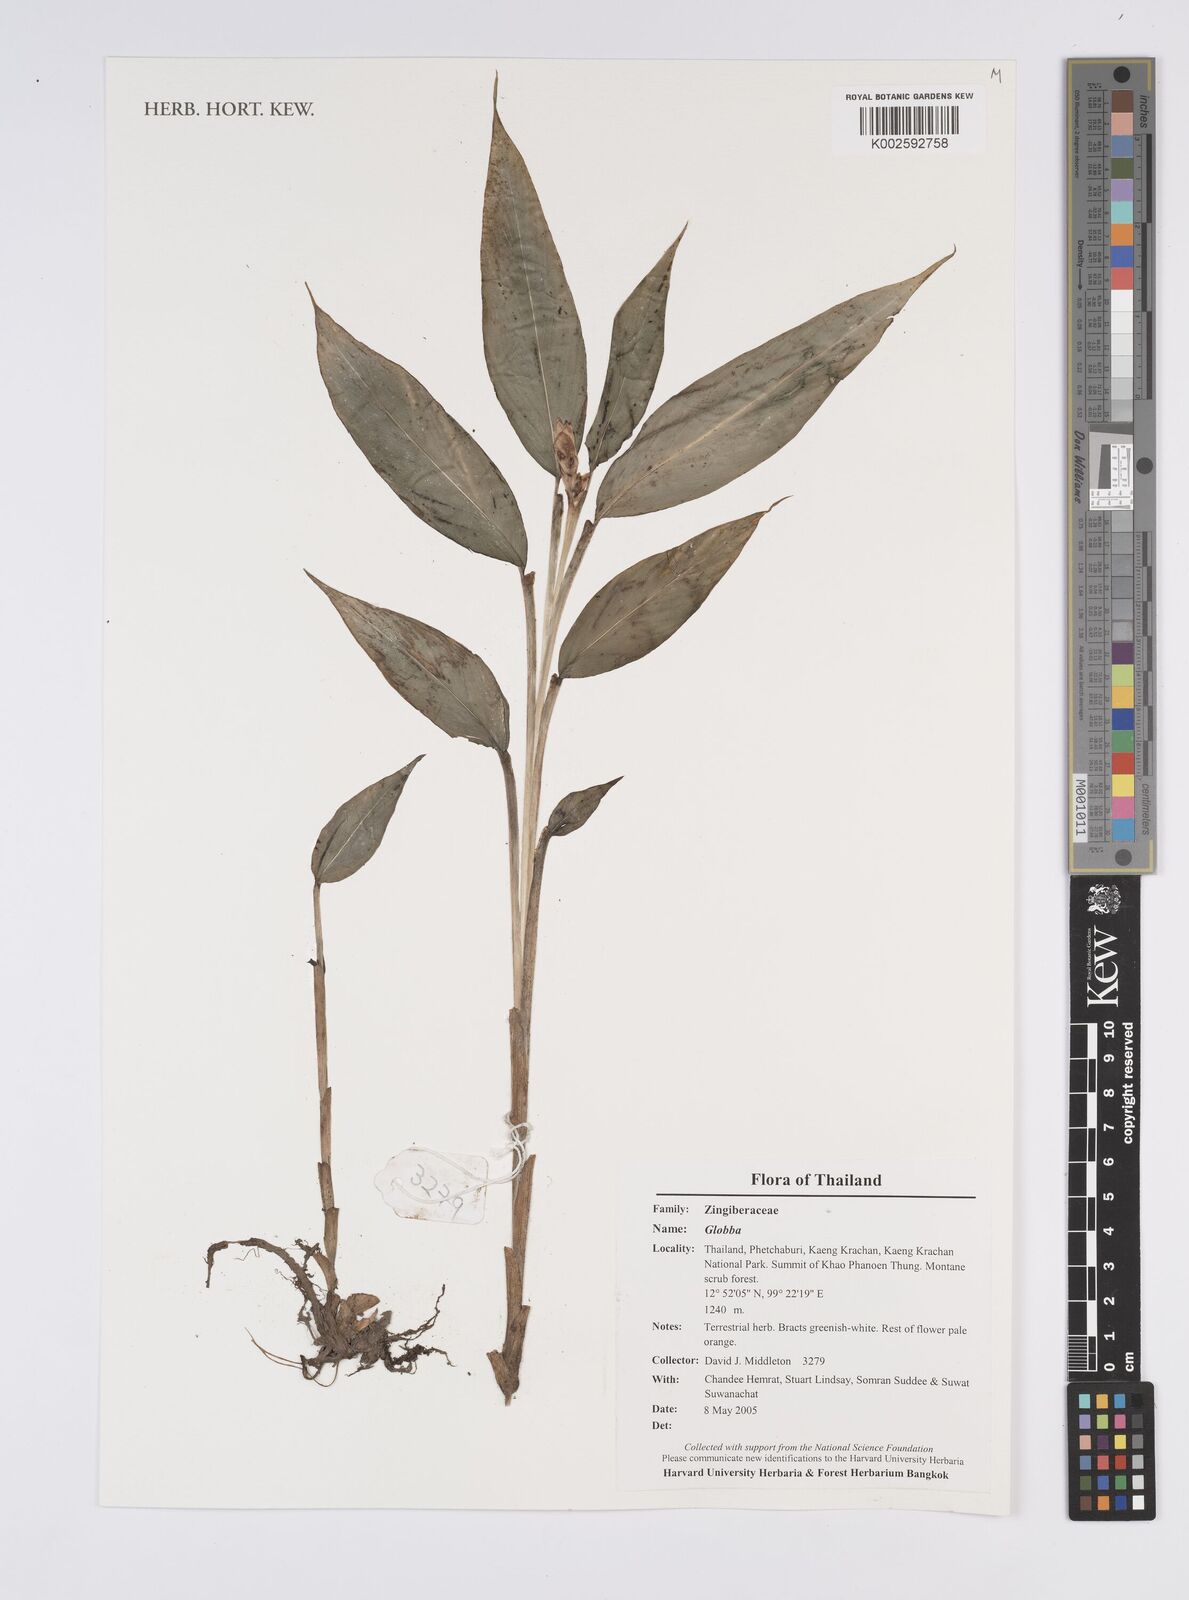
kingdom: Plantae
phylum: Tracheophyta
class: Liliopsida
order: Zingiberales
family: Zingiberaceae
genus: Globba
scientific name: Globba
